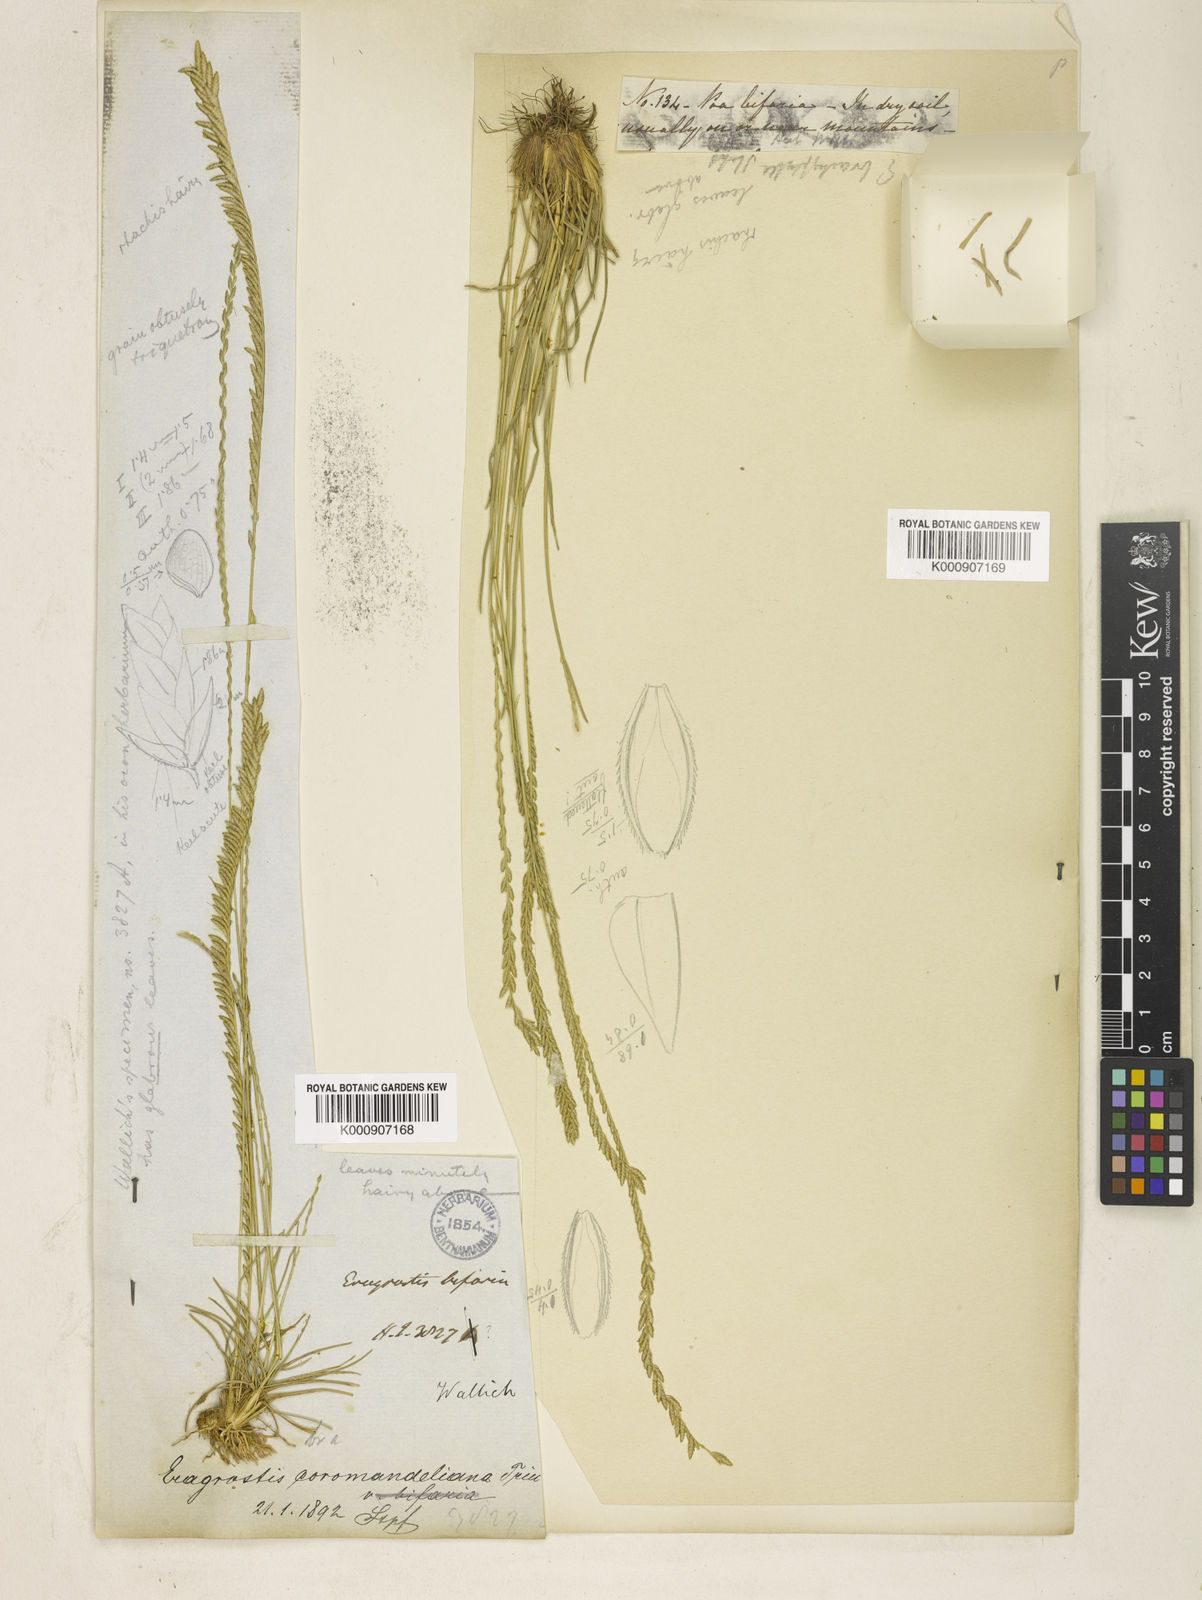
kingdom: Plantae
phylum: Tracheophyta
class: Liliopsida
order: Poales
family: Poaceae
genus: Eragrostiella
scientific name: Eragrostiella brachyphylla
